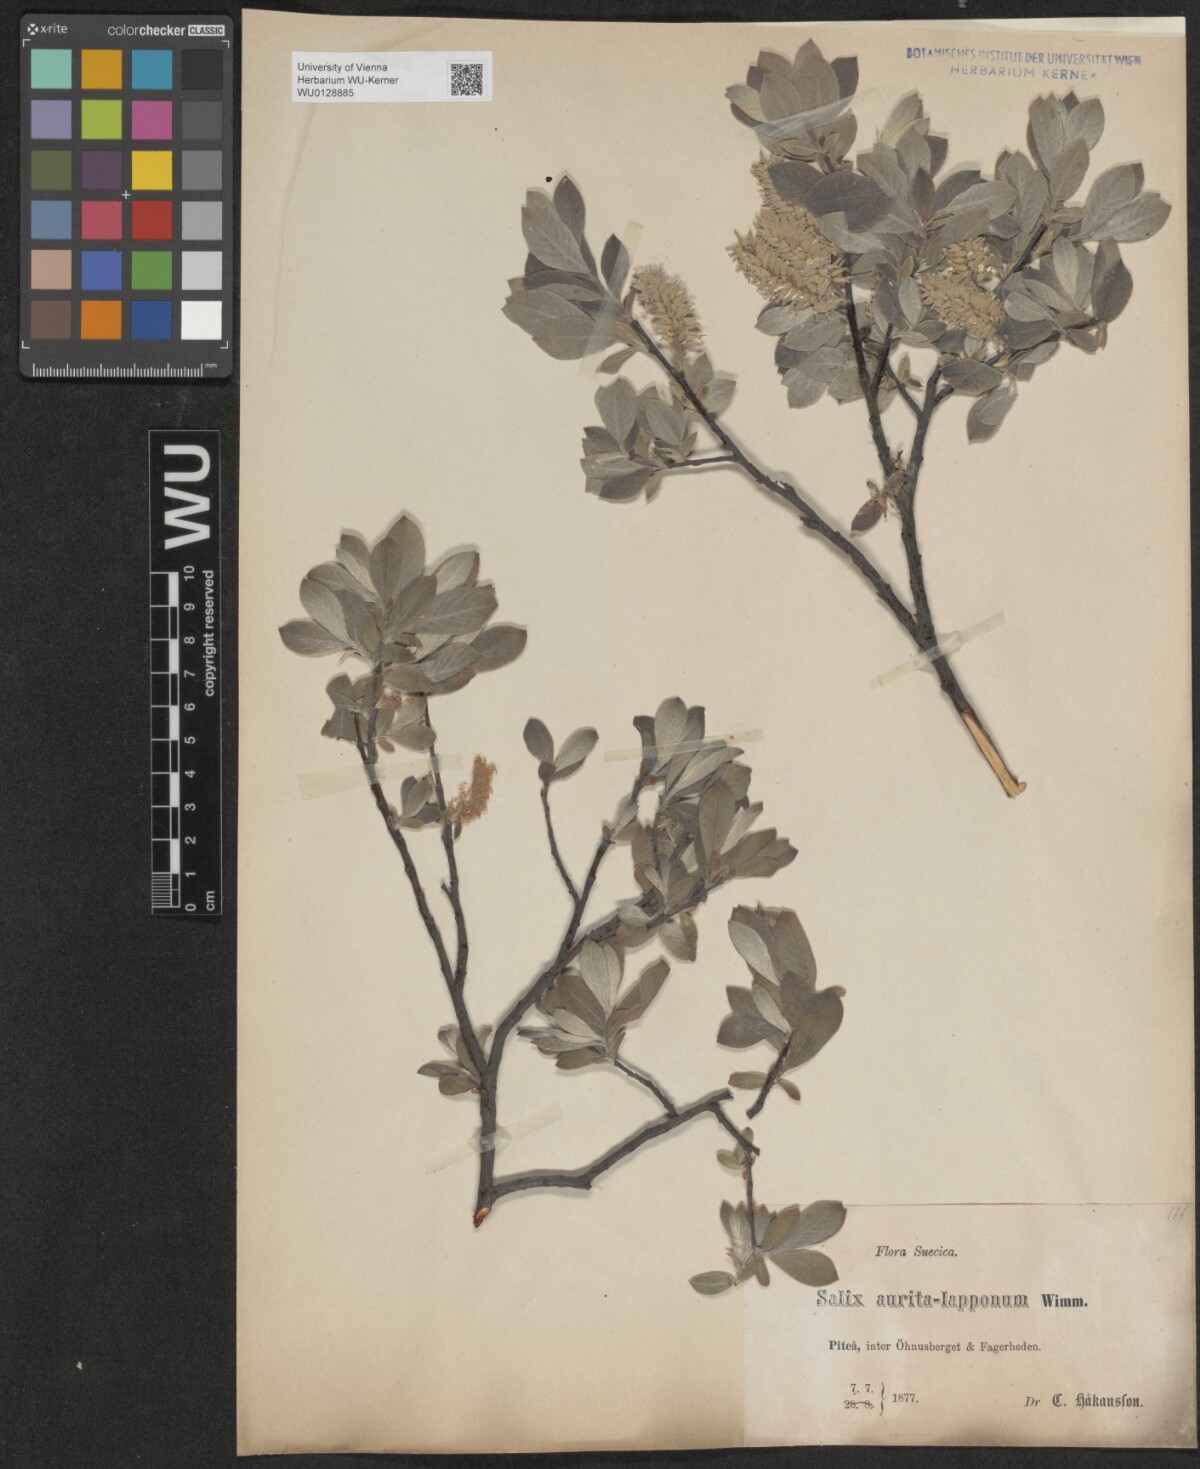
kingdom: Plantae
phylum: Tracheophyta
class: Magnoliopsida
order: Malpighiales
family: Salicaceae
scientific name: Salicaceae
